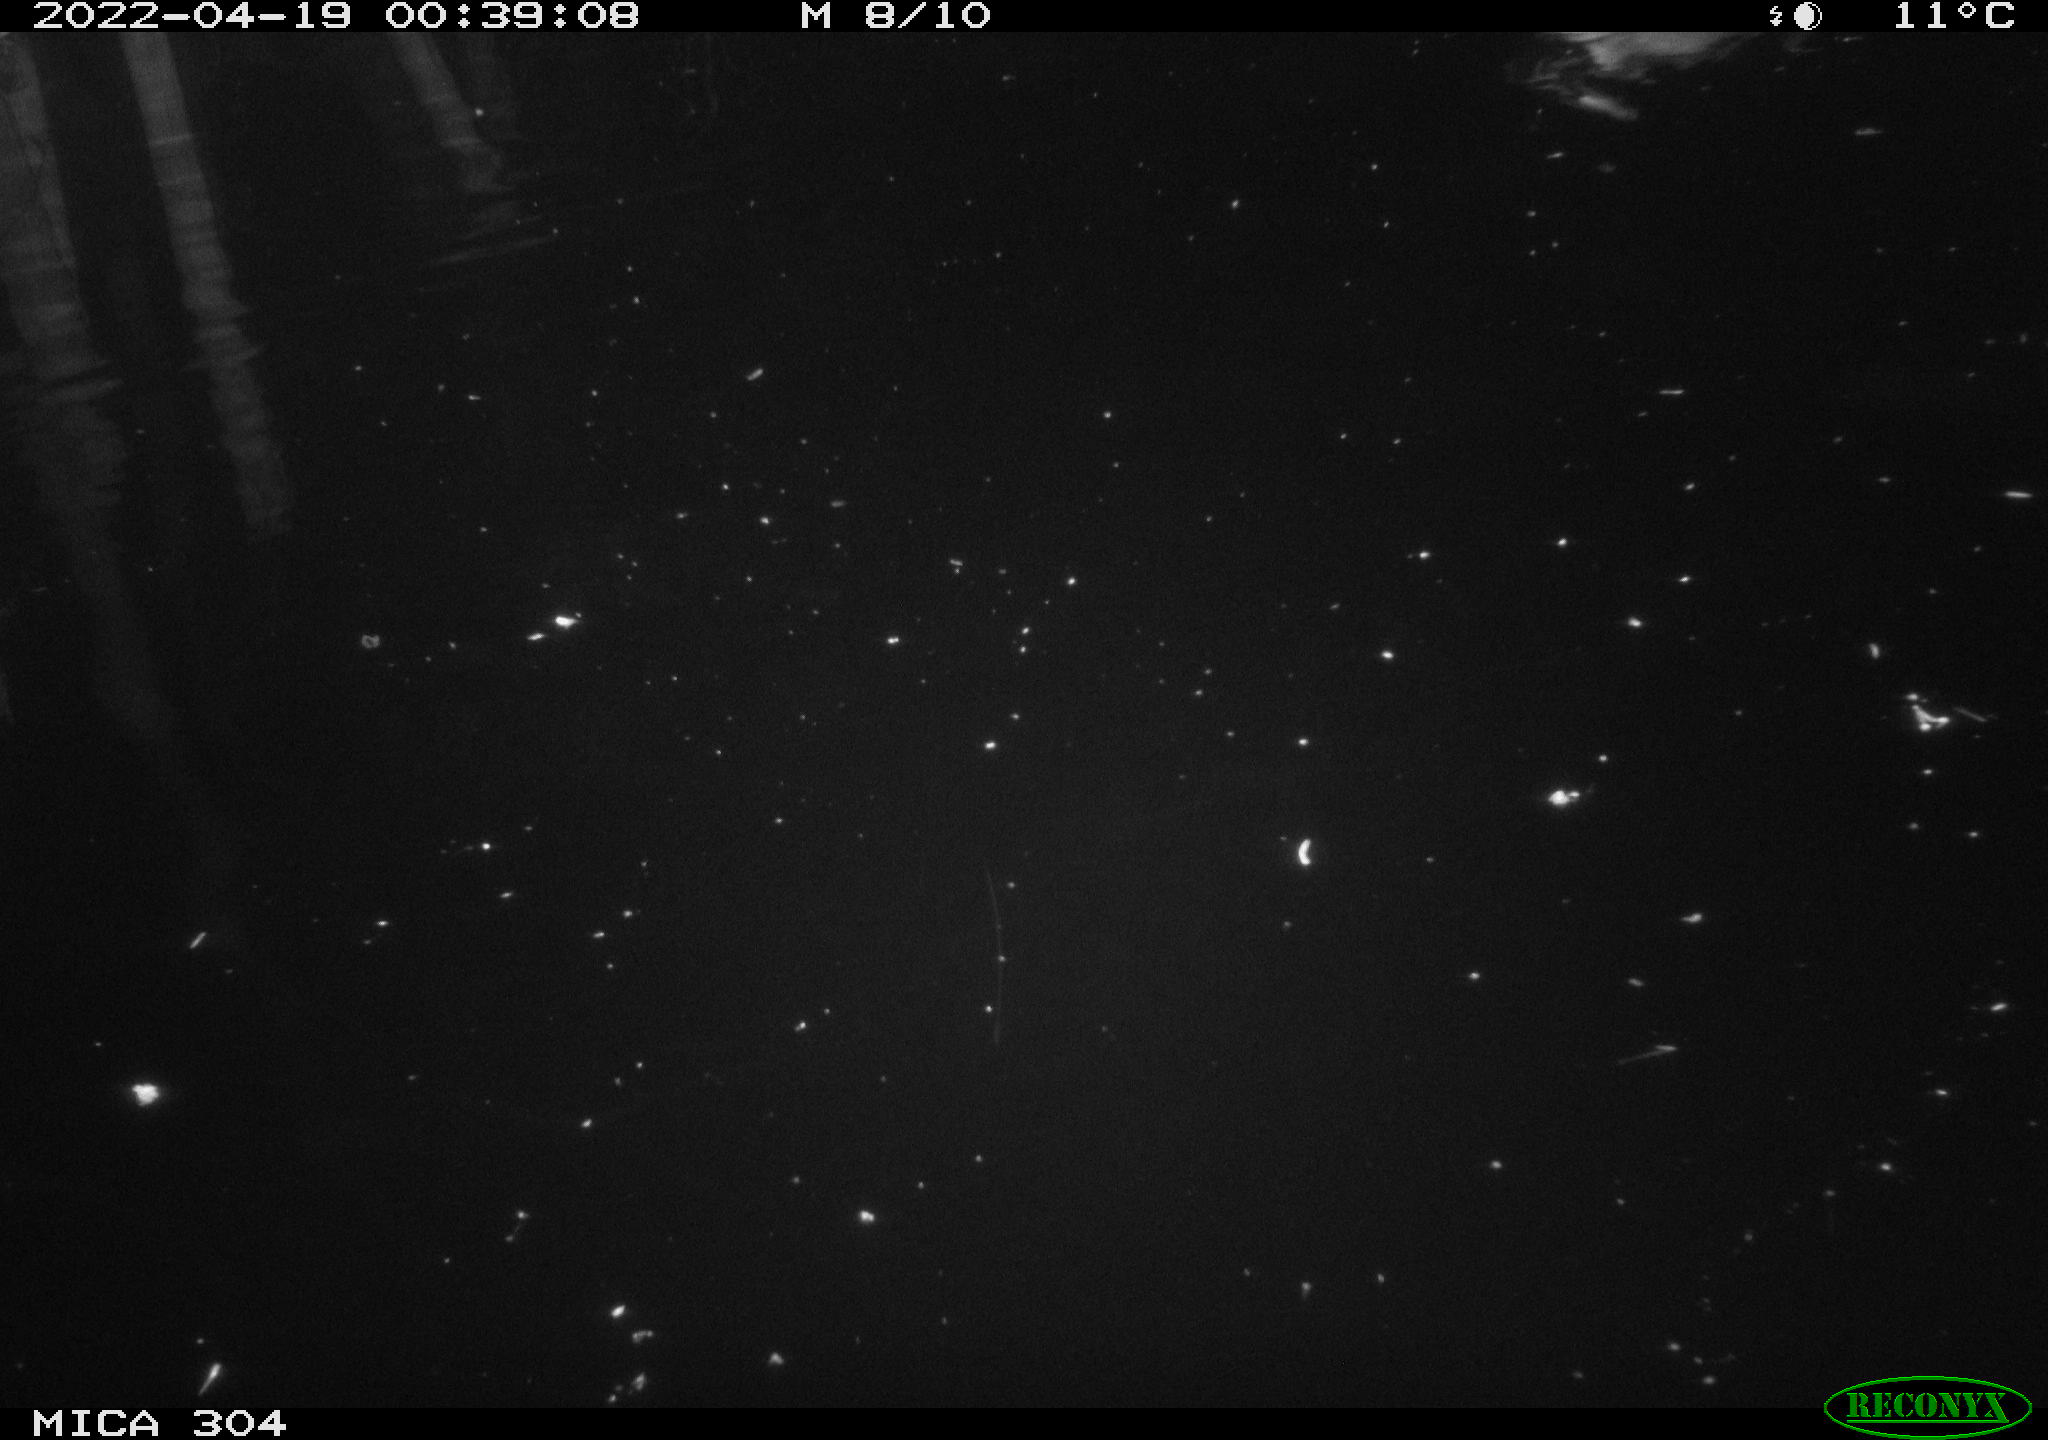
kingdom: Animalia
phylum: Chordata
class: Aves
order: Anseriformes
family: Anatidae
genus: Anas
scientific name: Anas platyrhynchos
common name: Mallard
